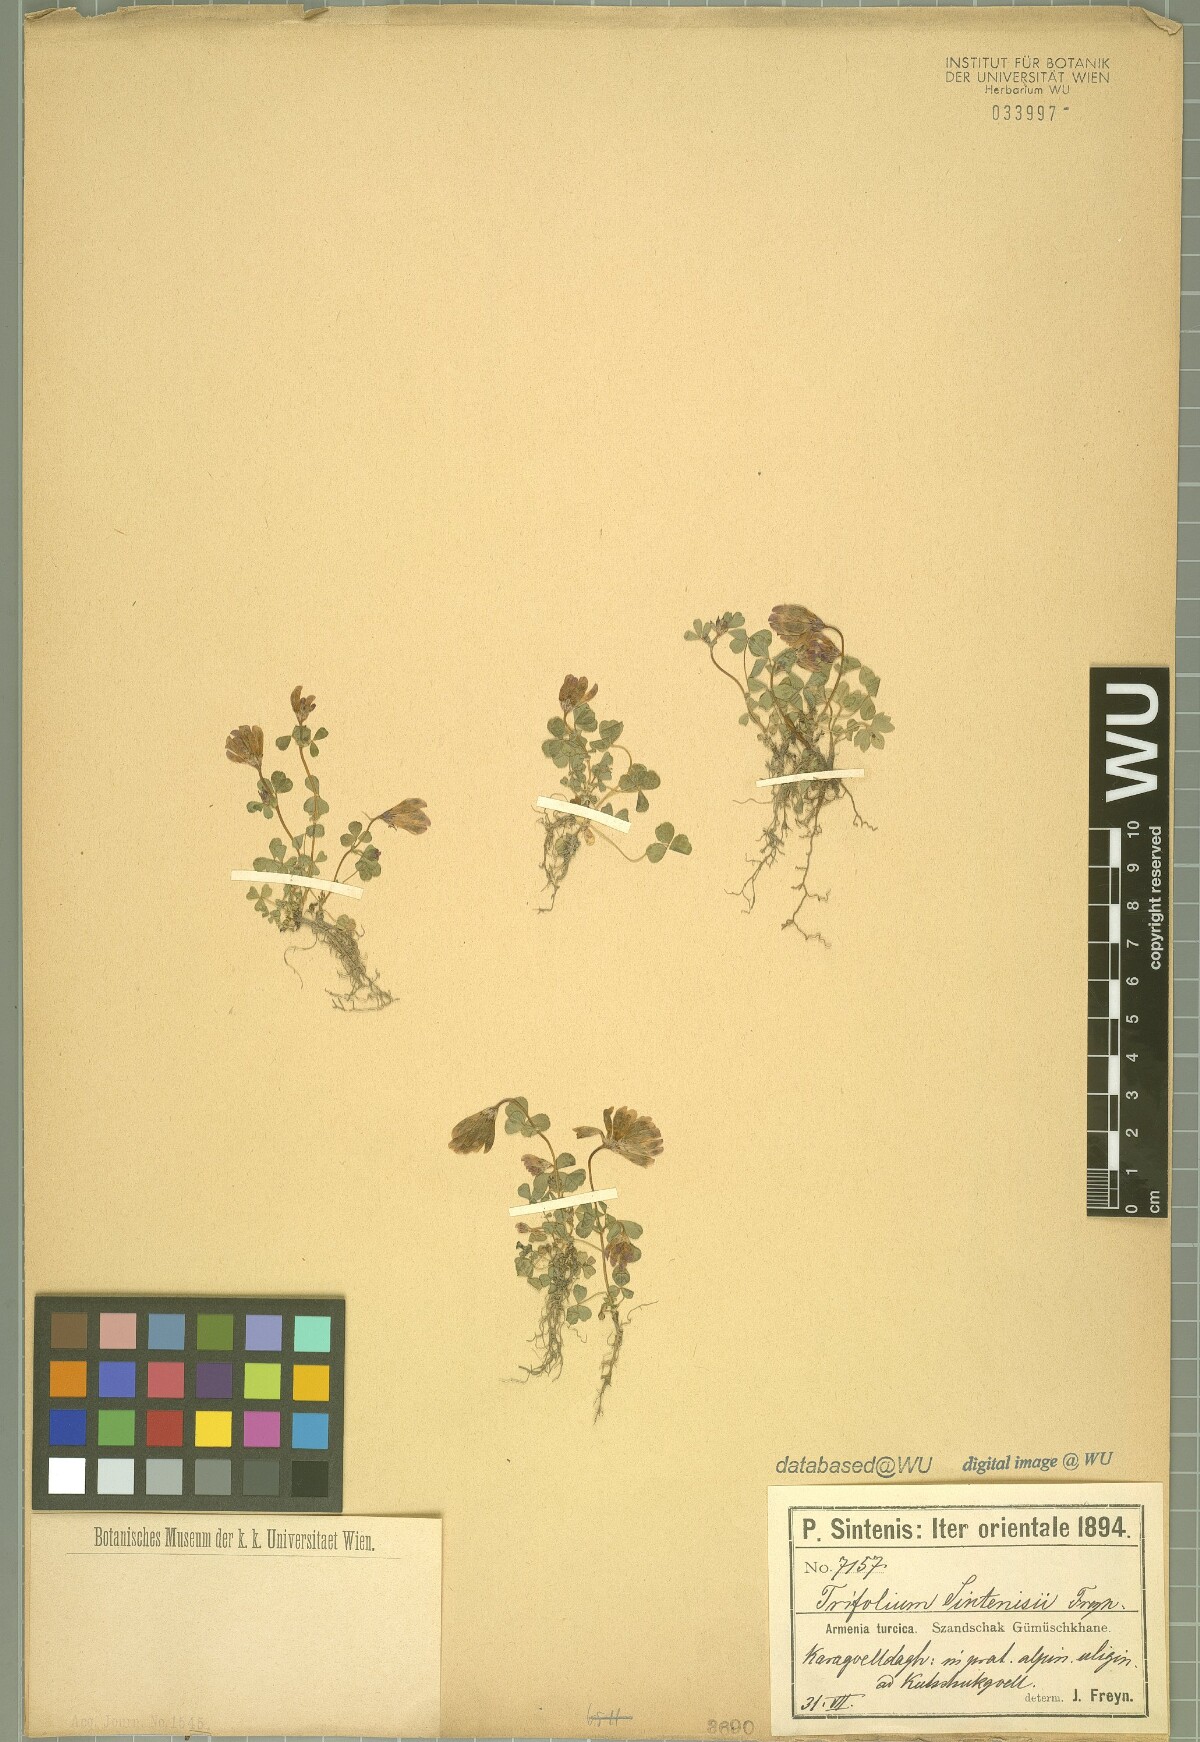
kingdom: Plantae
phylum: Tracheophyta
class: Magnoliopsida
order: Fabales
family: Fabaceae
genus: Trifolium
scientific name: Trifolium sintenisii
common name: Sintenis's clover
